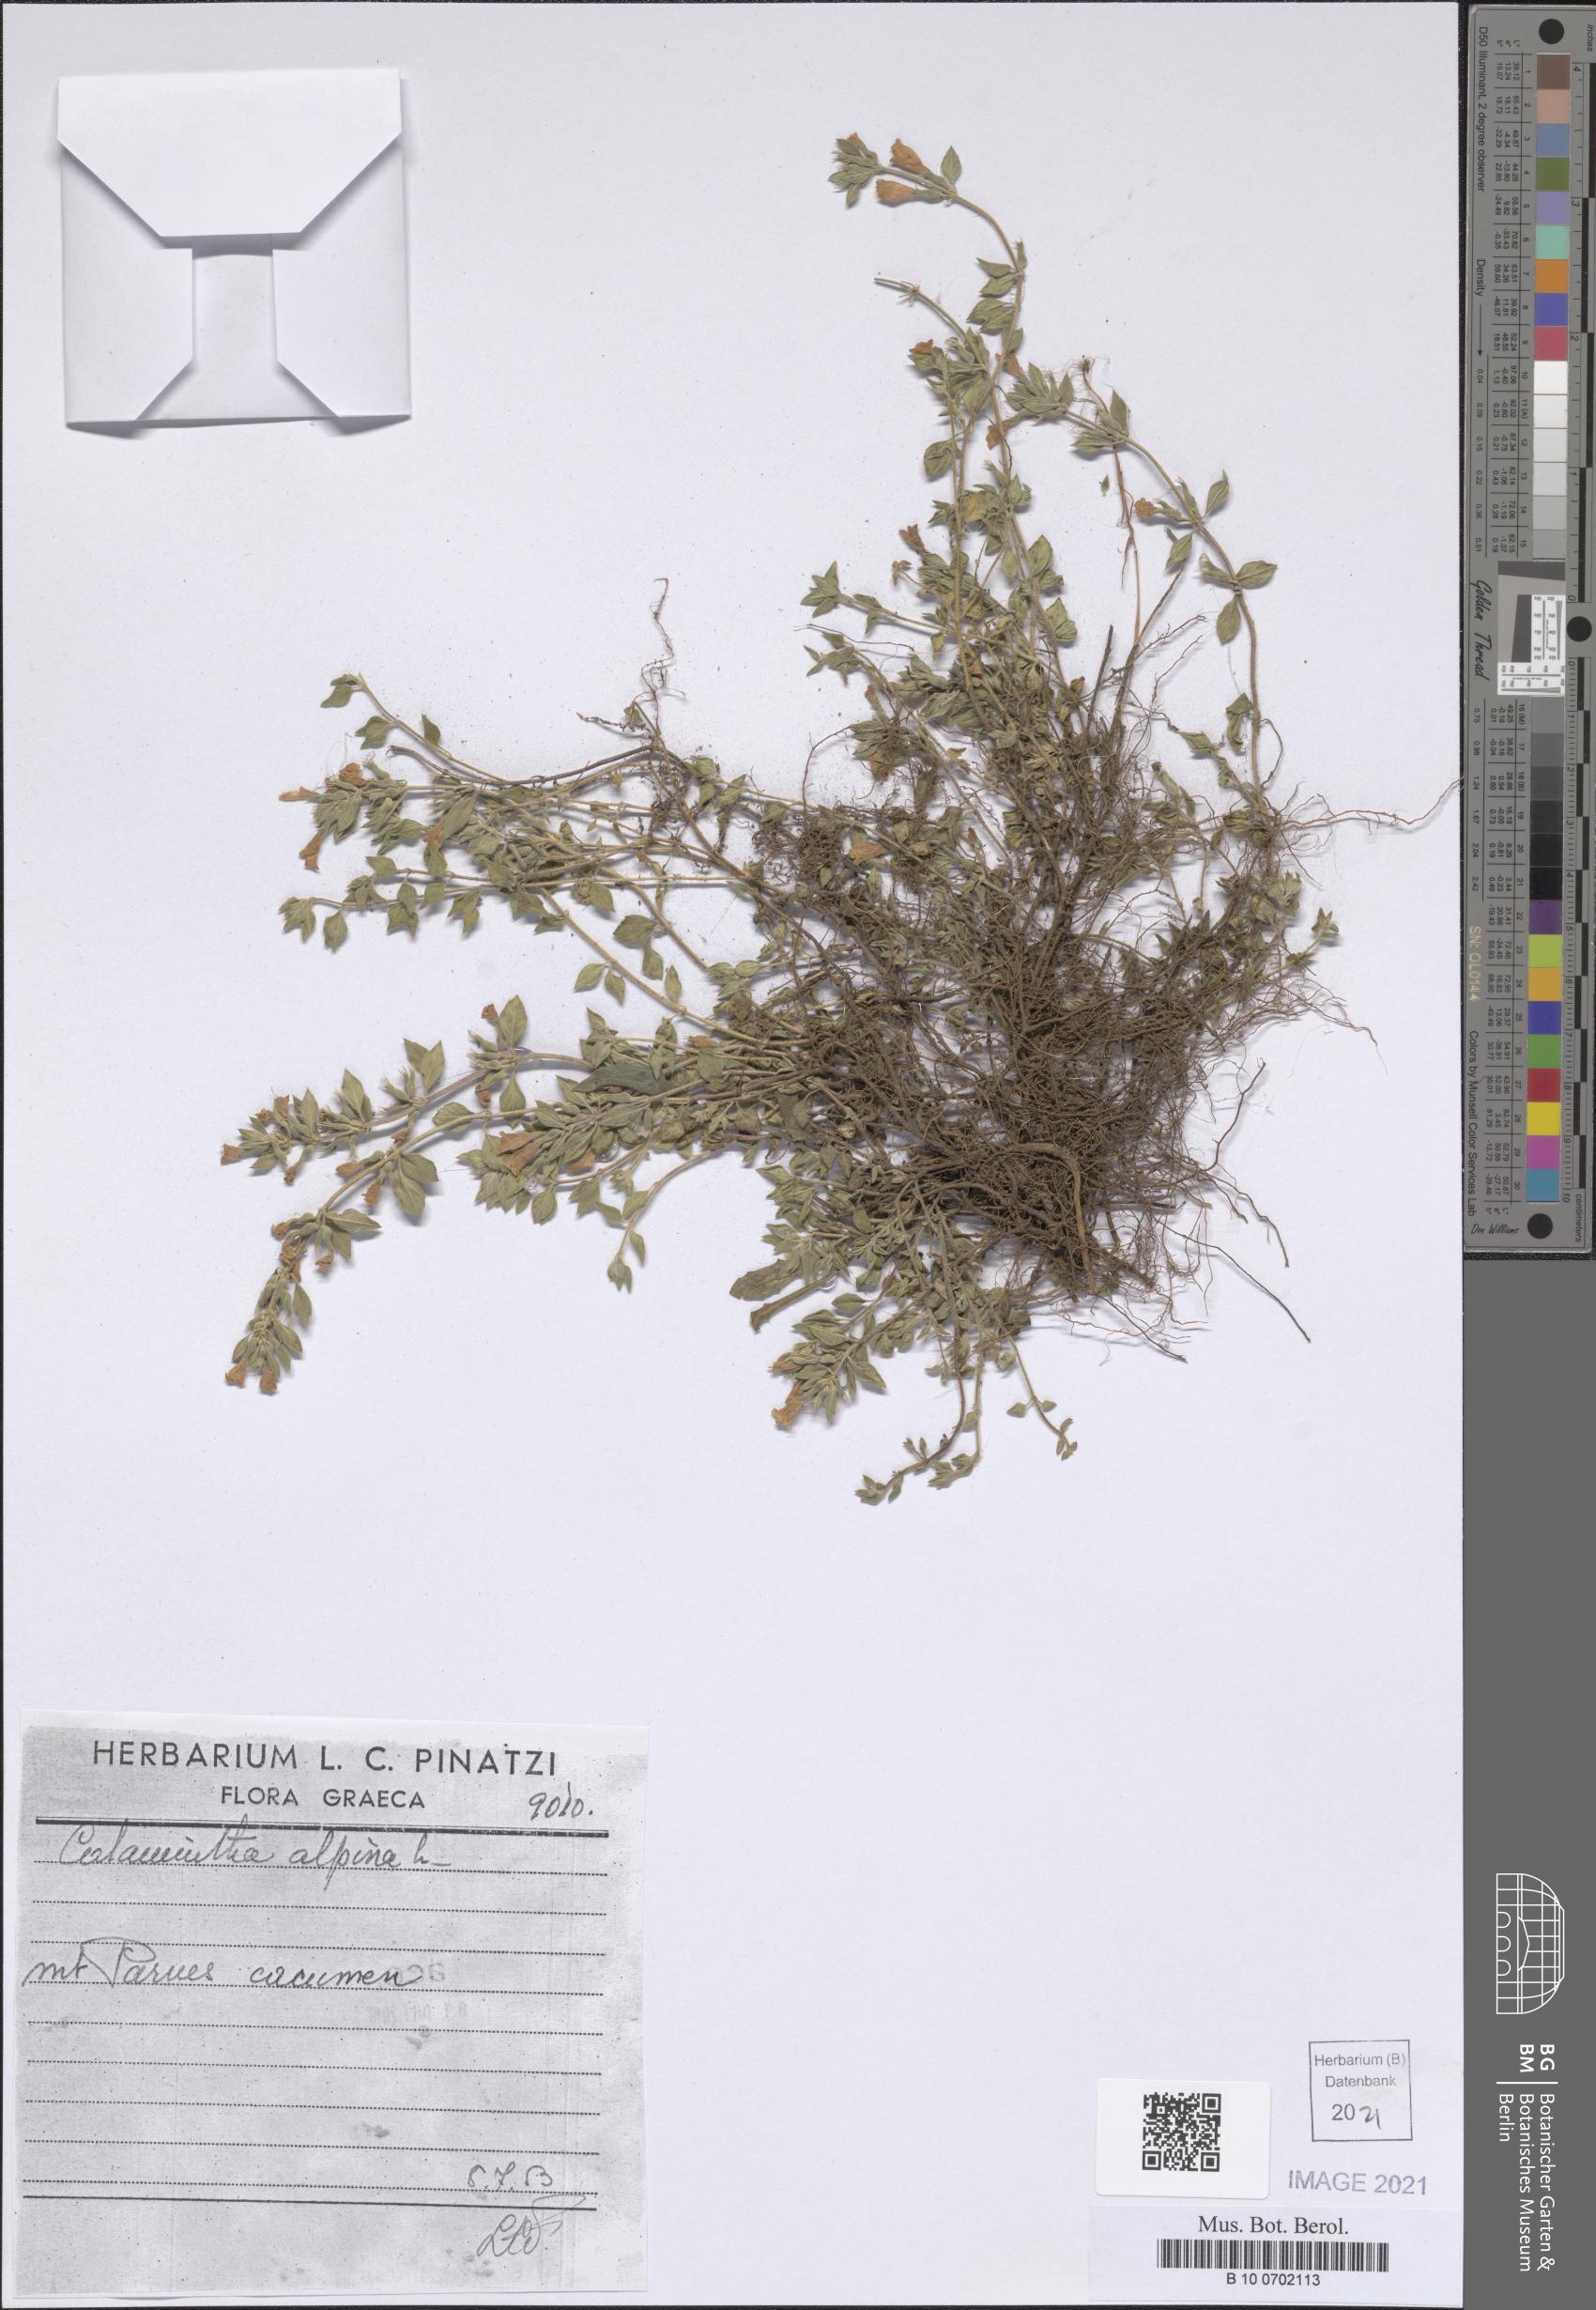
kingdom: Plantae
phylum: Tracheophyta
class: Magnoliopsida
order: Lamiales
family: Lamiaceae
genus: Clinopodium
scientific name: Clinopodium alpinum
